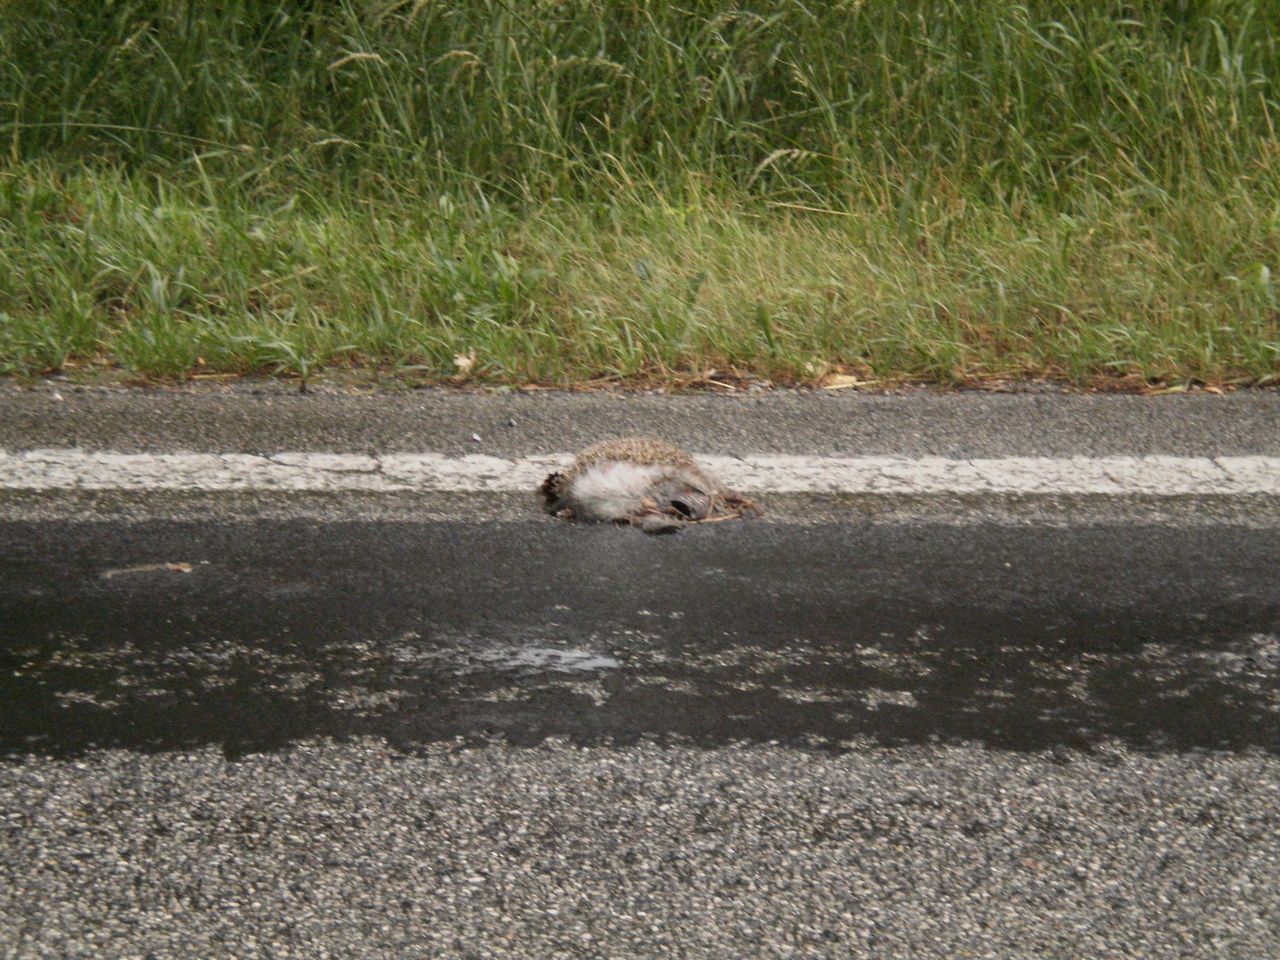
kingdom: Animalia
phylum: Chordata
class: Mammalia
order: Erinaceomorpha
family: Erinaceidae
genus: Erinaceus
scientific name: Erinaceus
